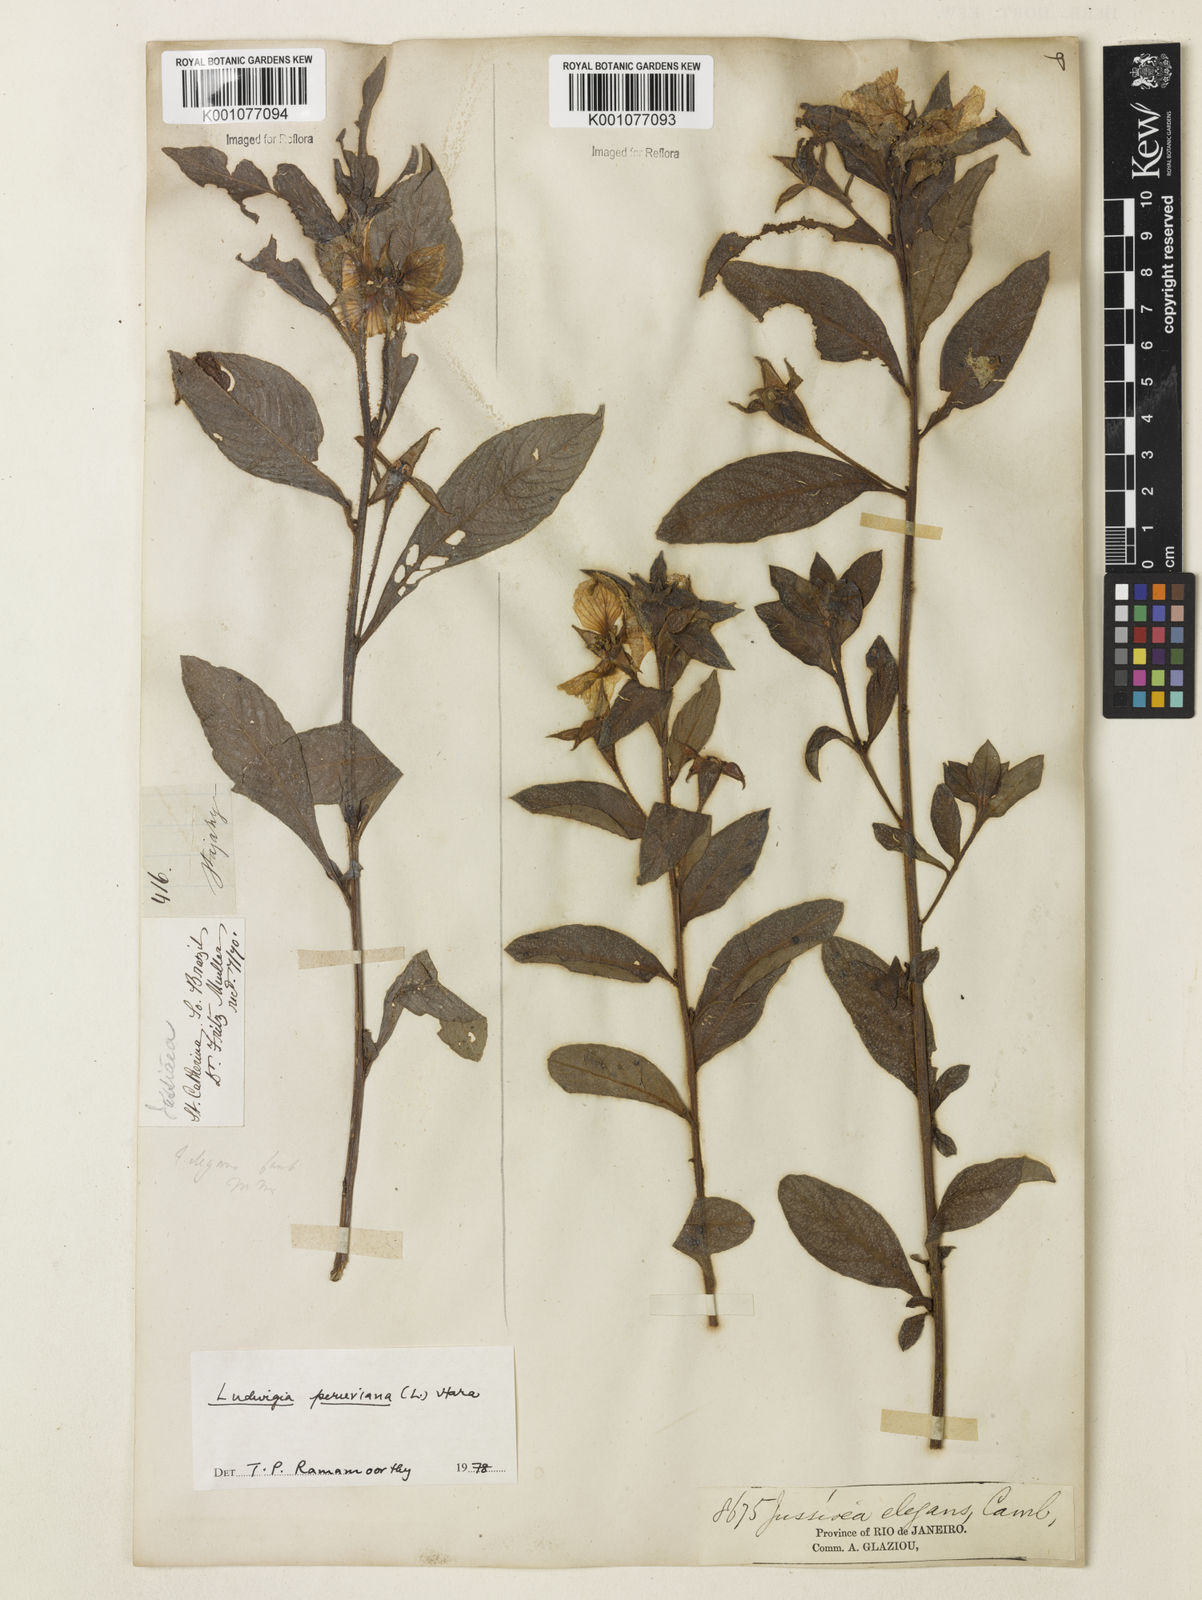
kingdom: Plantae
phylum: Tracheophyta
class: Magnoliopsida
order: Myrtales
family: Onagraceae
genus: Ludwigia
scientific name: Ludwigia elegans
